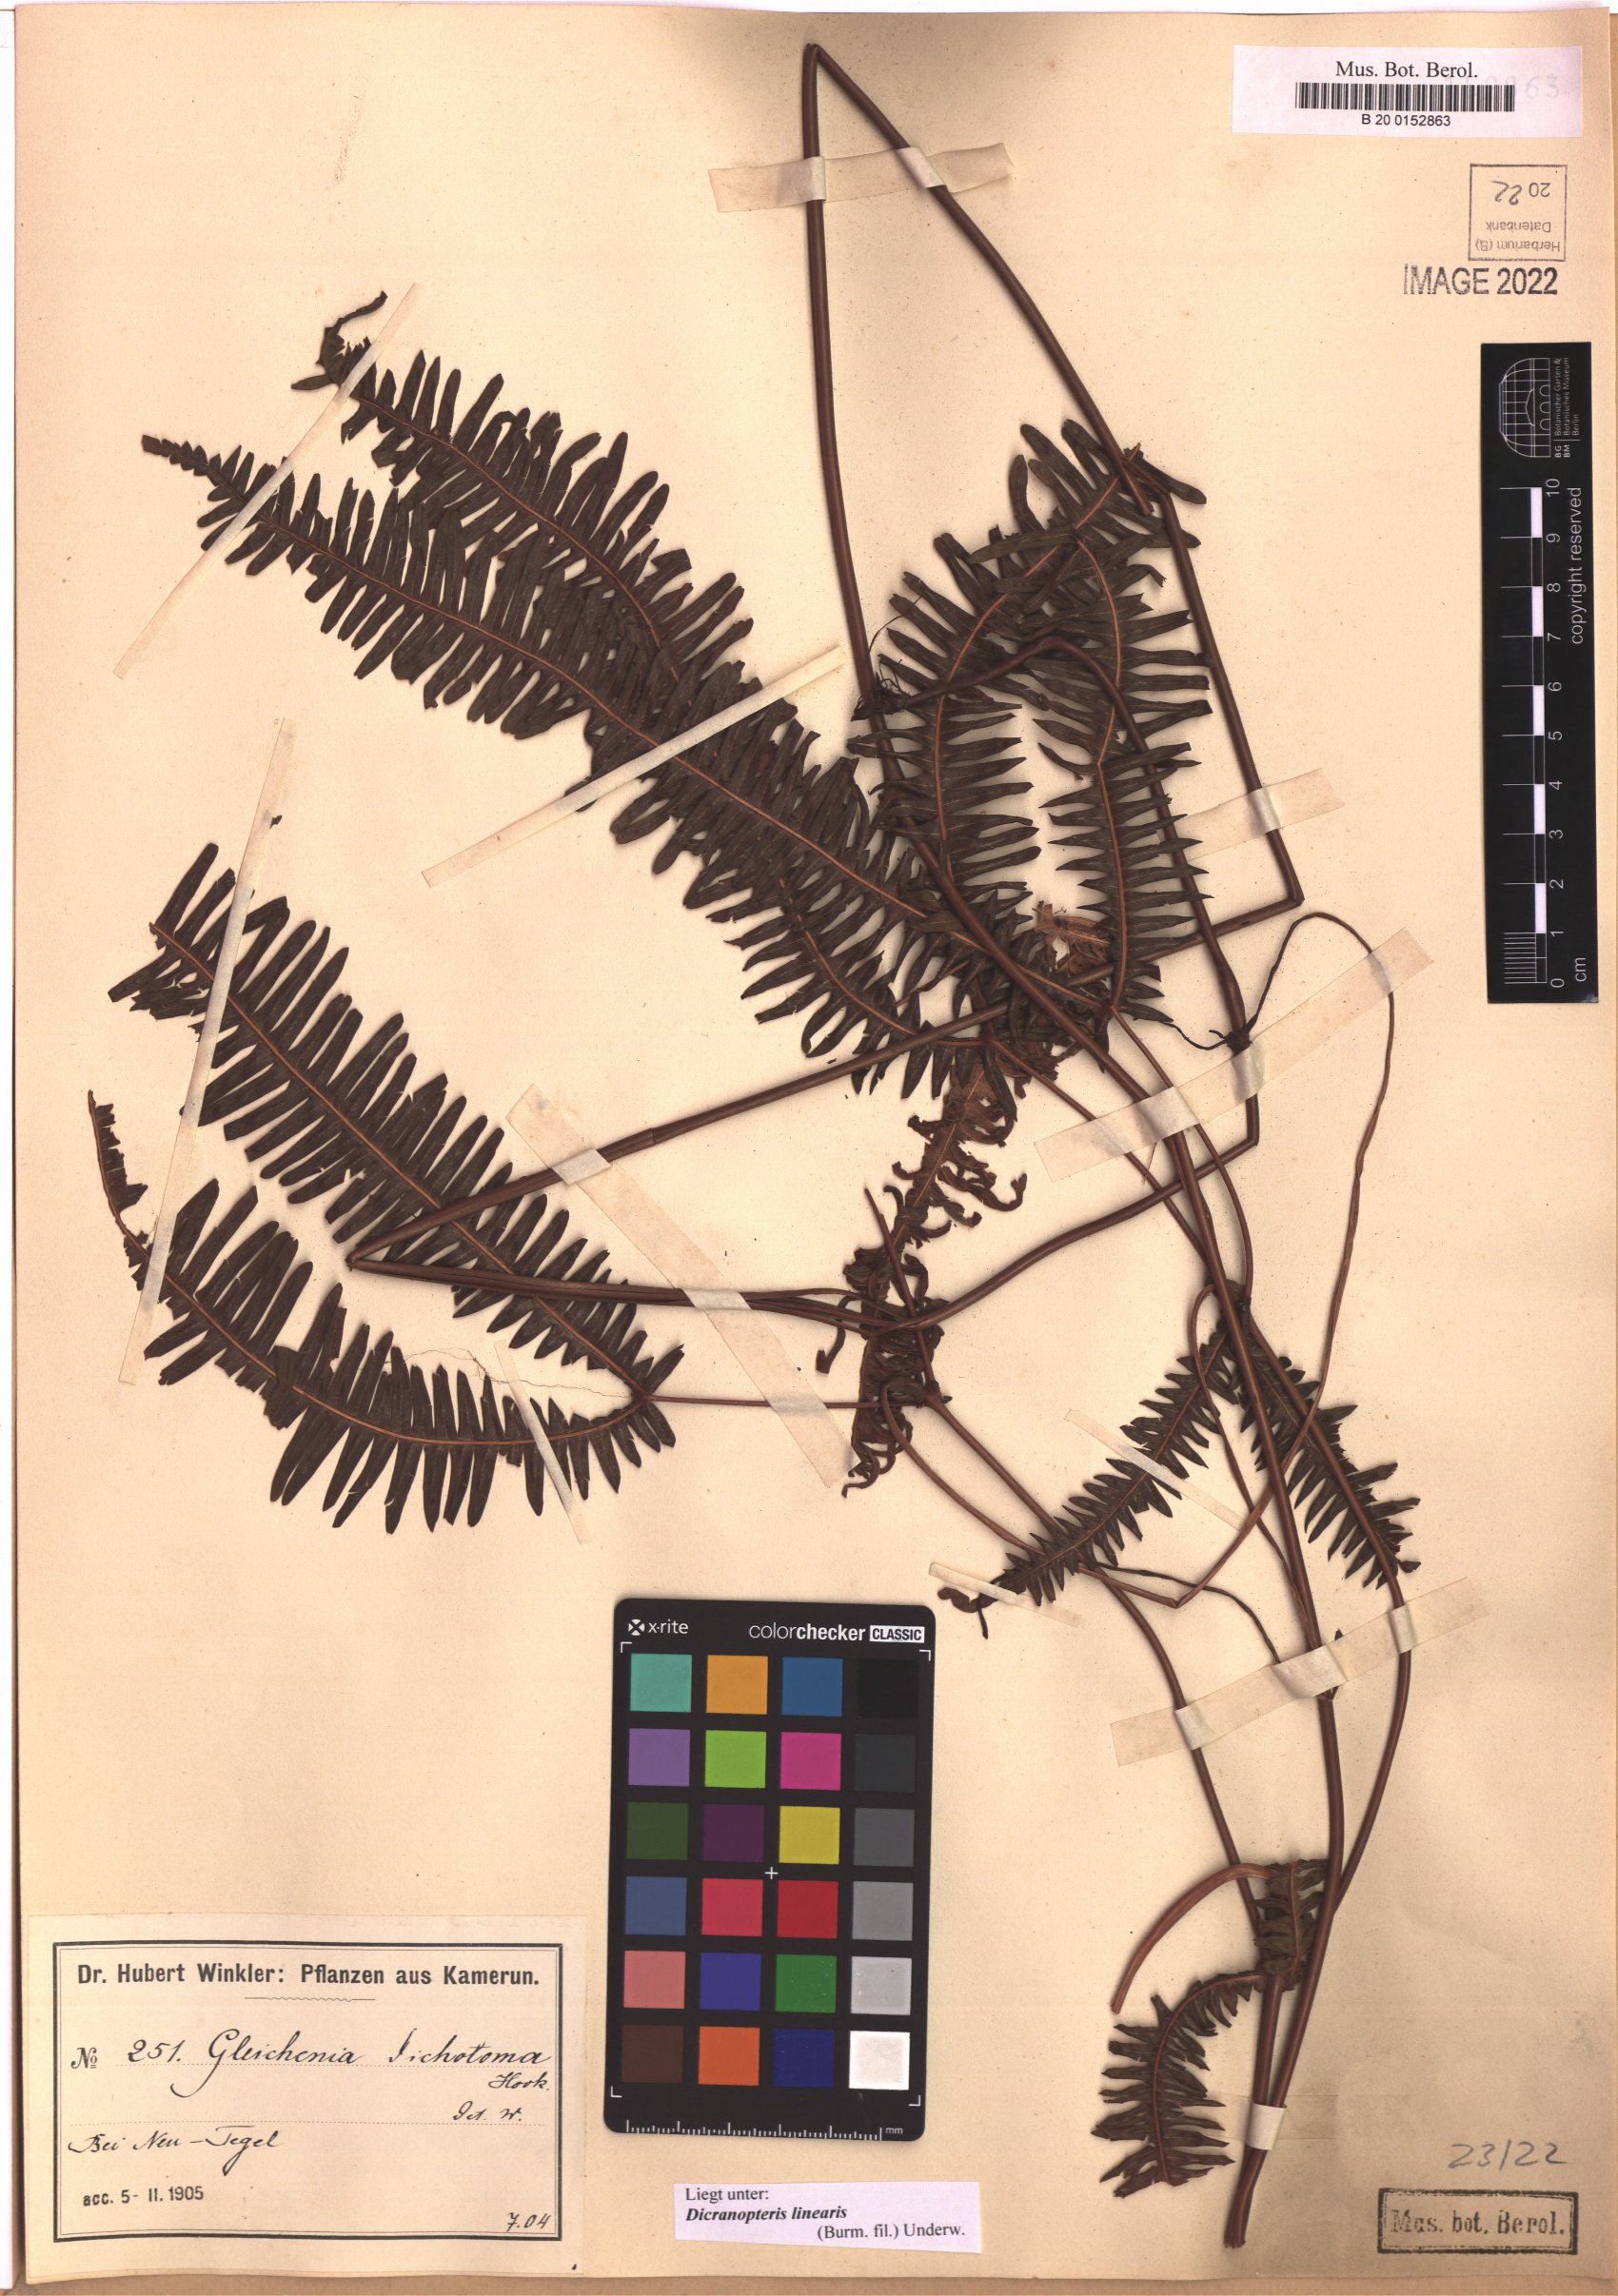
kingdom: Plantae
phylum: Tracheophyta
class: Polypodiopsida
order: Gleicheniales
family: Gleicheniaceae
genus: Dicranopteris
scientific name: Dicranopteris linearis
